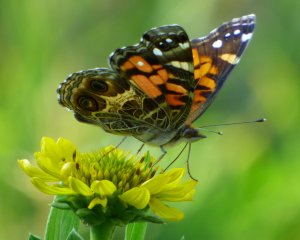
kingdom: Animalia
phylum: Arthropoda
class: Insecta
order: Lepidoptera
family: Nymphalidae
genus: Vanessa
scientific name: Vanessa virginiensis
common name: American Lady
